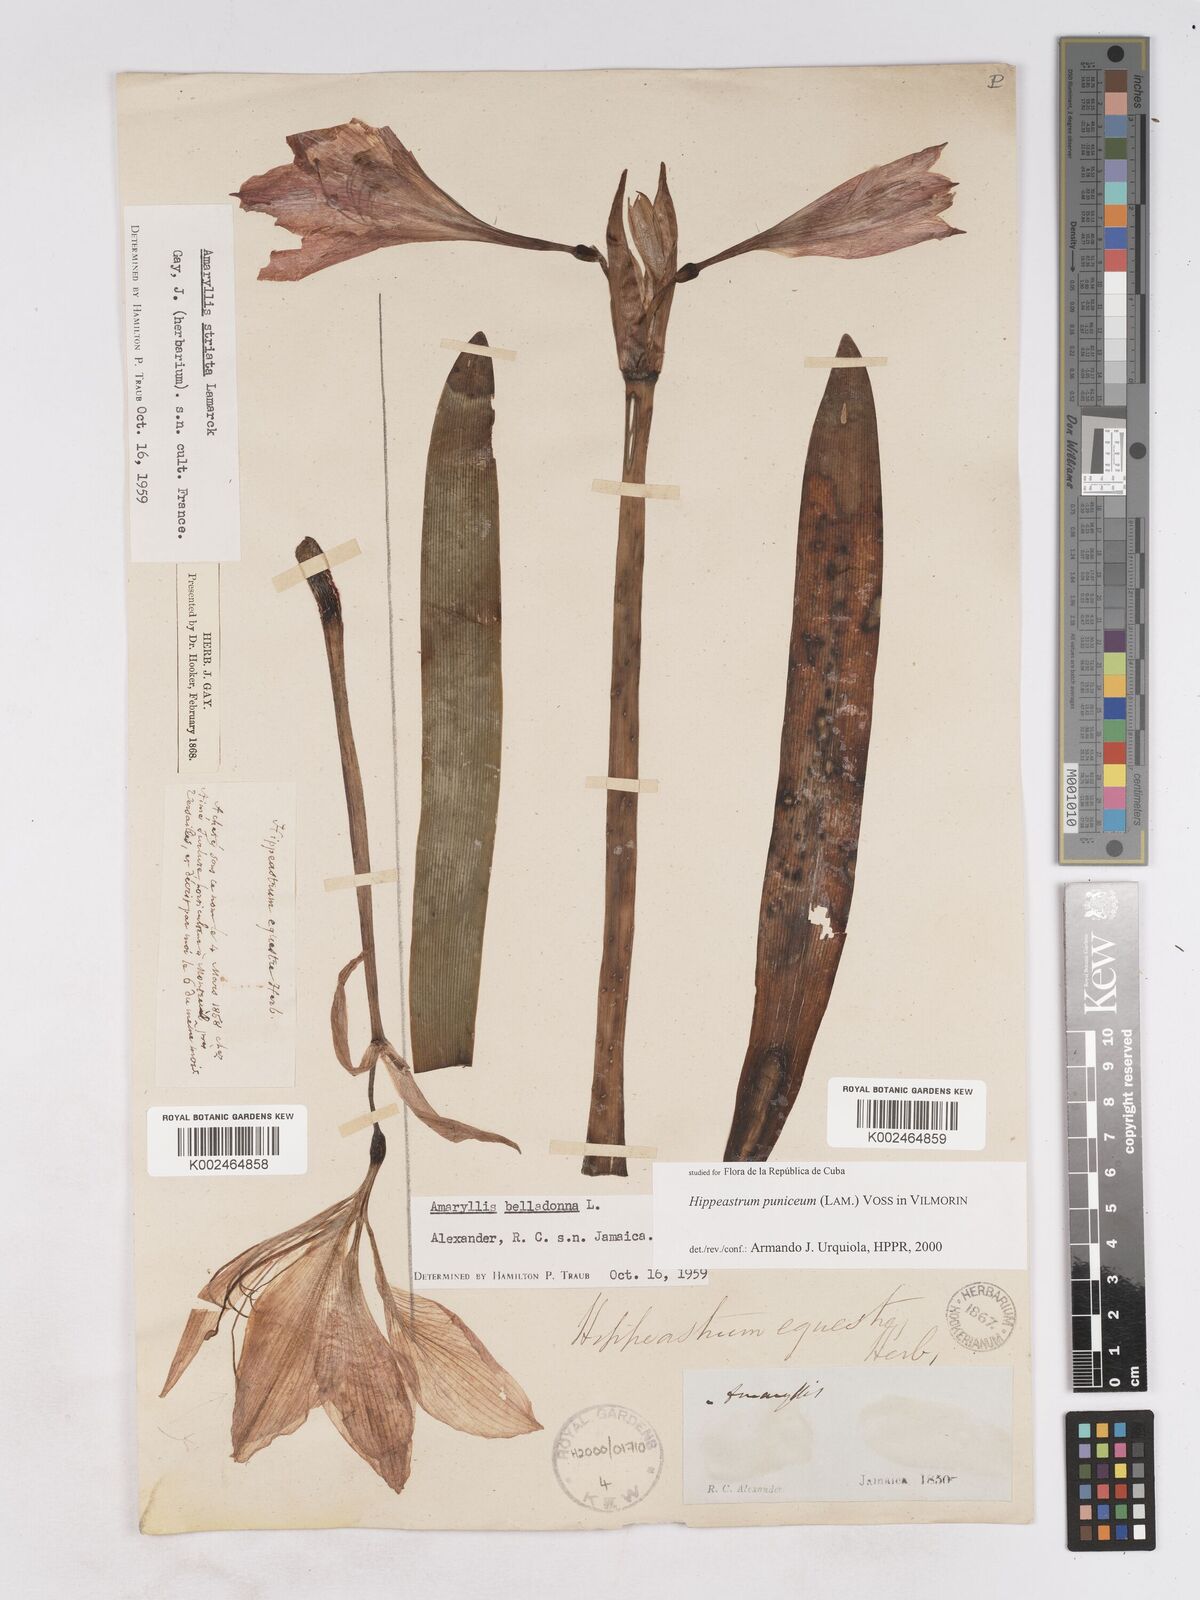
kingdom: Plantae
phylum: Tracheophyta
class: Liliopsida
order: Asparagales
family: Amaryllidaceae
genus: Hippeastrum
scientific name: Hippeastrum puniceum
